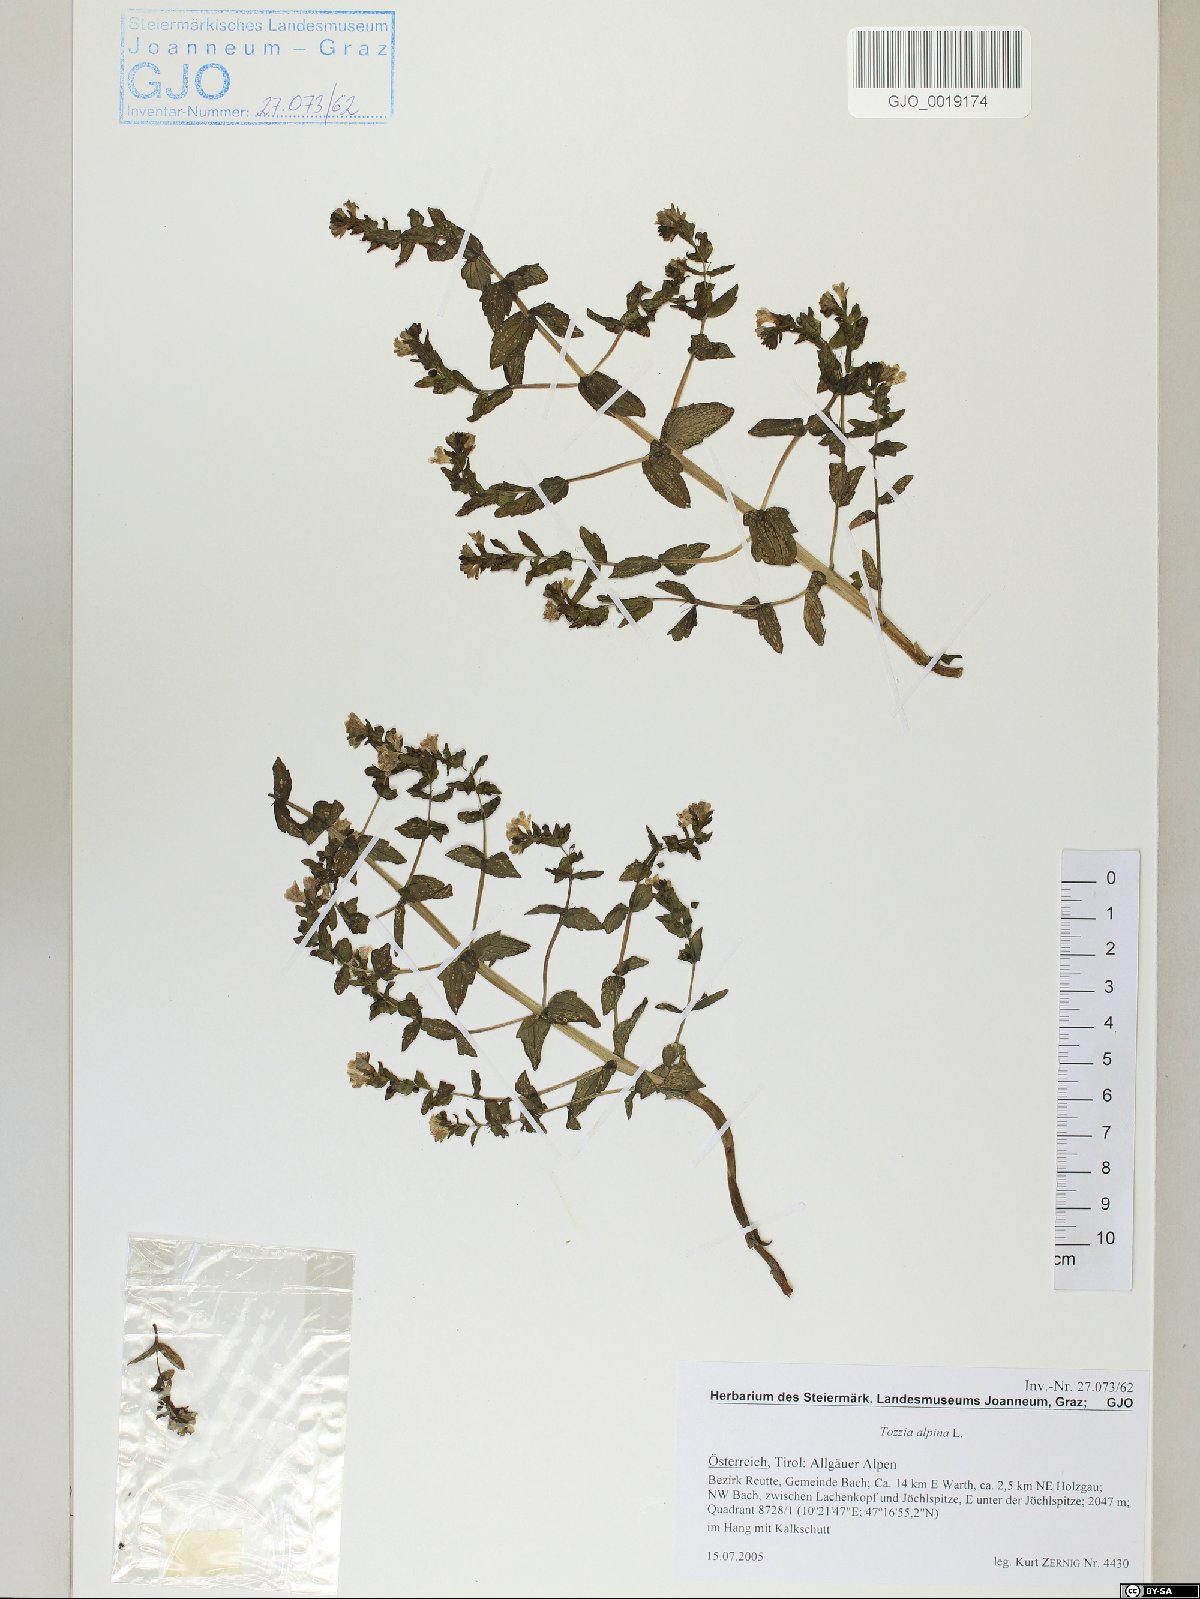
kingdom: Plantae
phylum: Tracheophyta
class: Magnoliopsida
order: Lamiales
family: Orobanchaceae
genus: Tozzia
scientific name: Tozzia alpina
